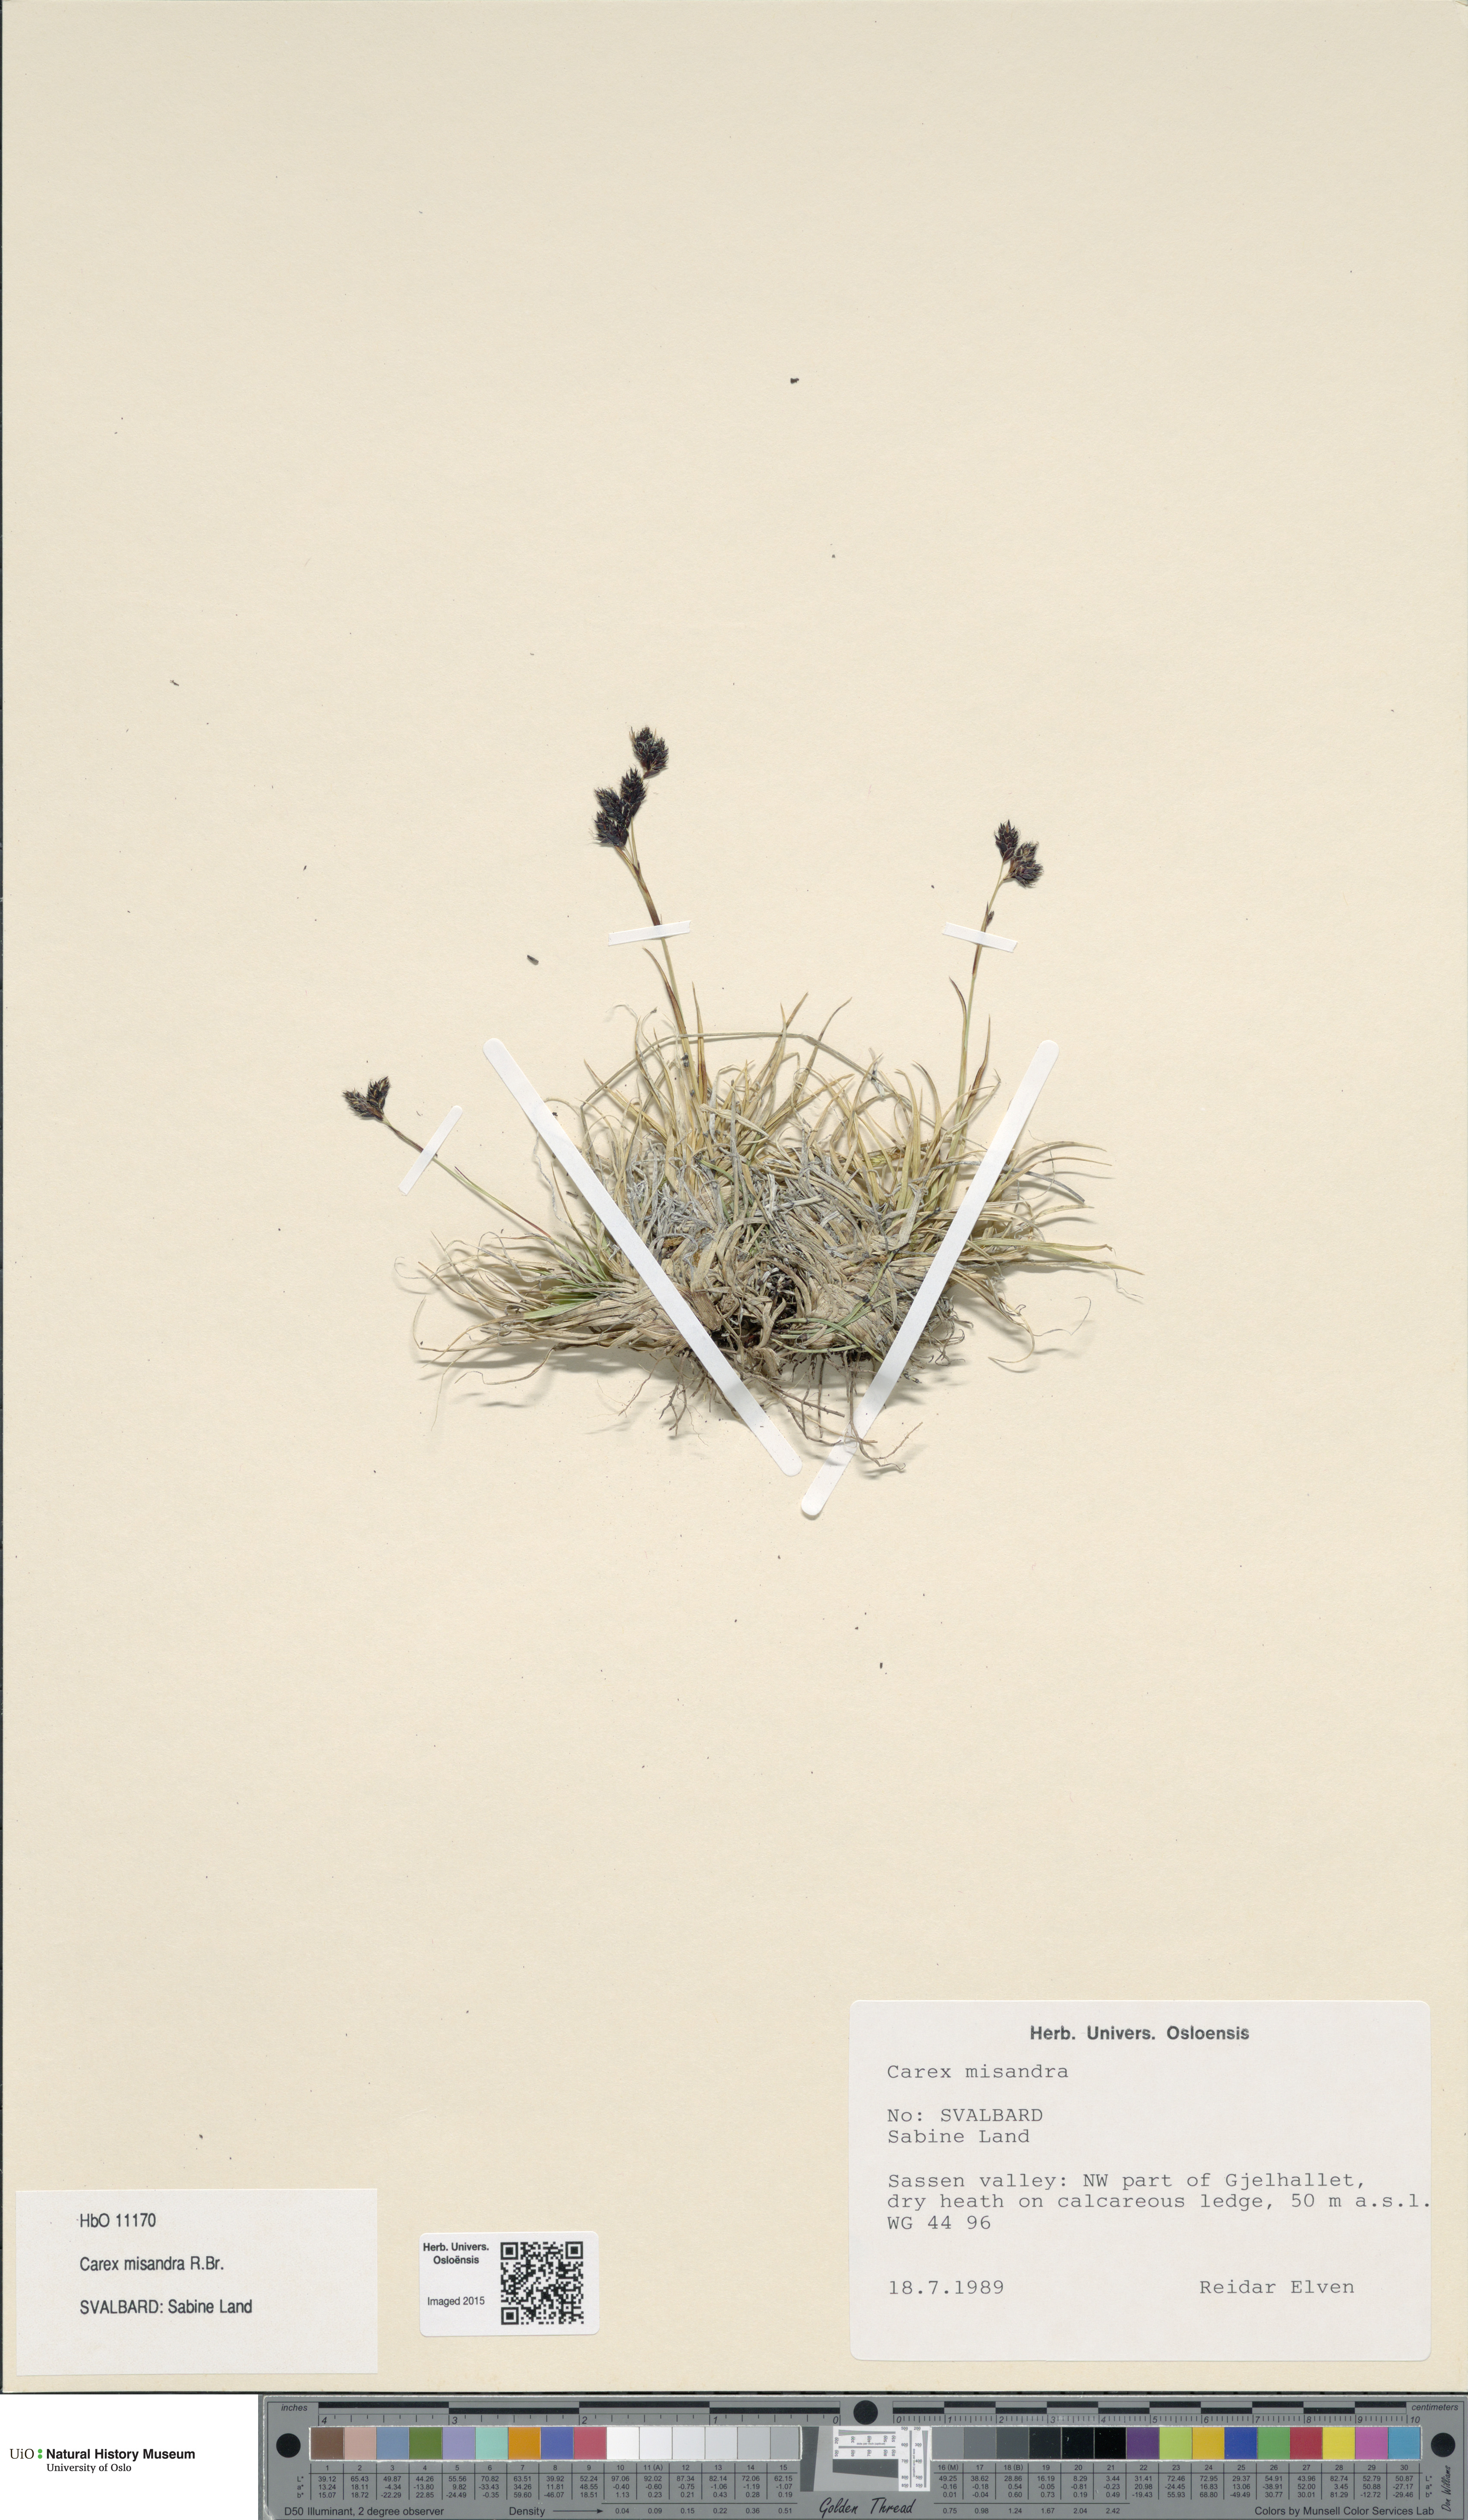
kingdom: Plantae
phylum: Tracheophyta
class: Liliopsida
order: Poales
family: Cyperaceae
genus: Carex
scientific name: Carex fuliginosa
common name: Few-flowered sedge
